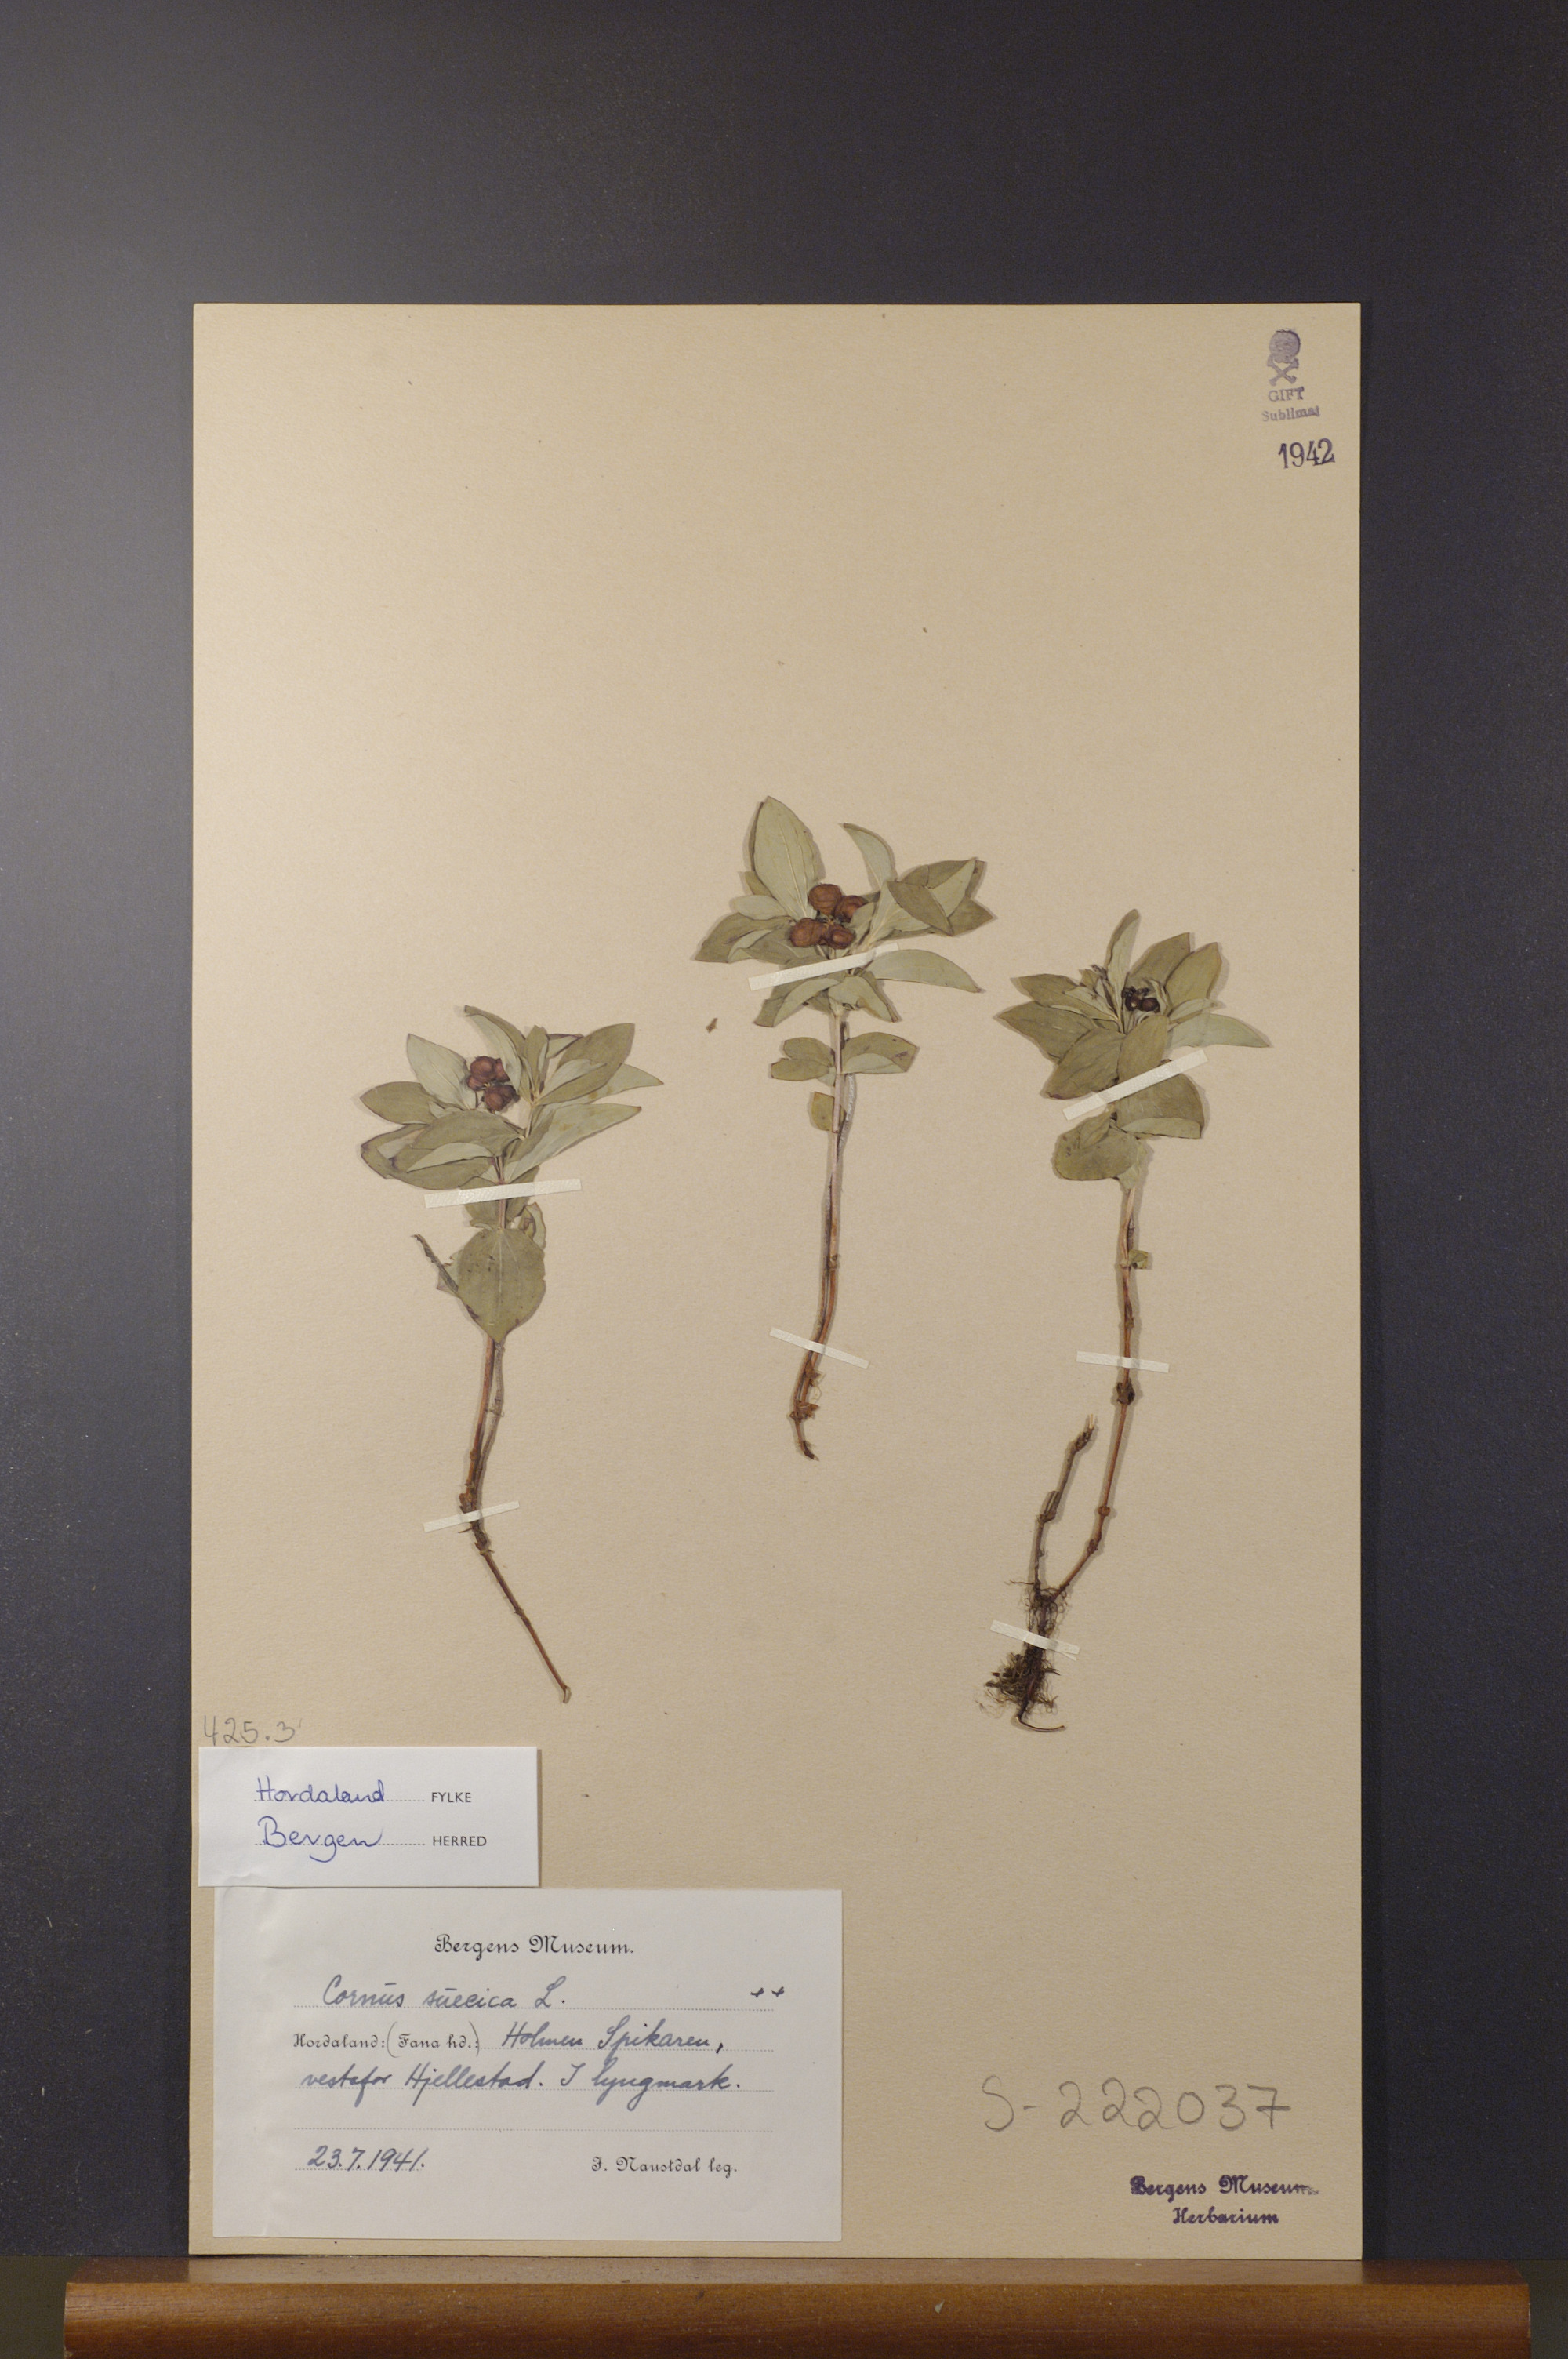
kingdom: Plantae
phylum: Tracheophyta
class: Magnoliopsida
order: Cornales
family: Cornaceae
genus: Cornus
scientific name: Cornus suecica
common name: Dwarf cornel
